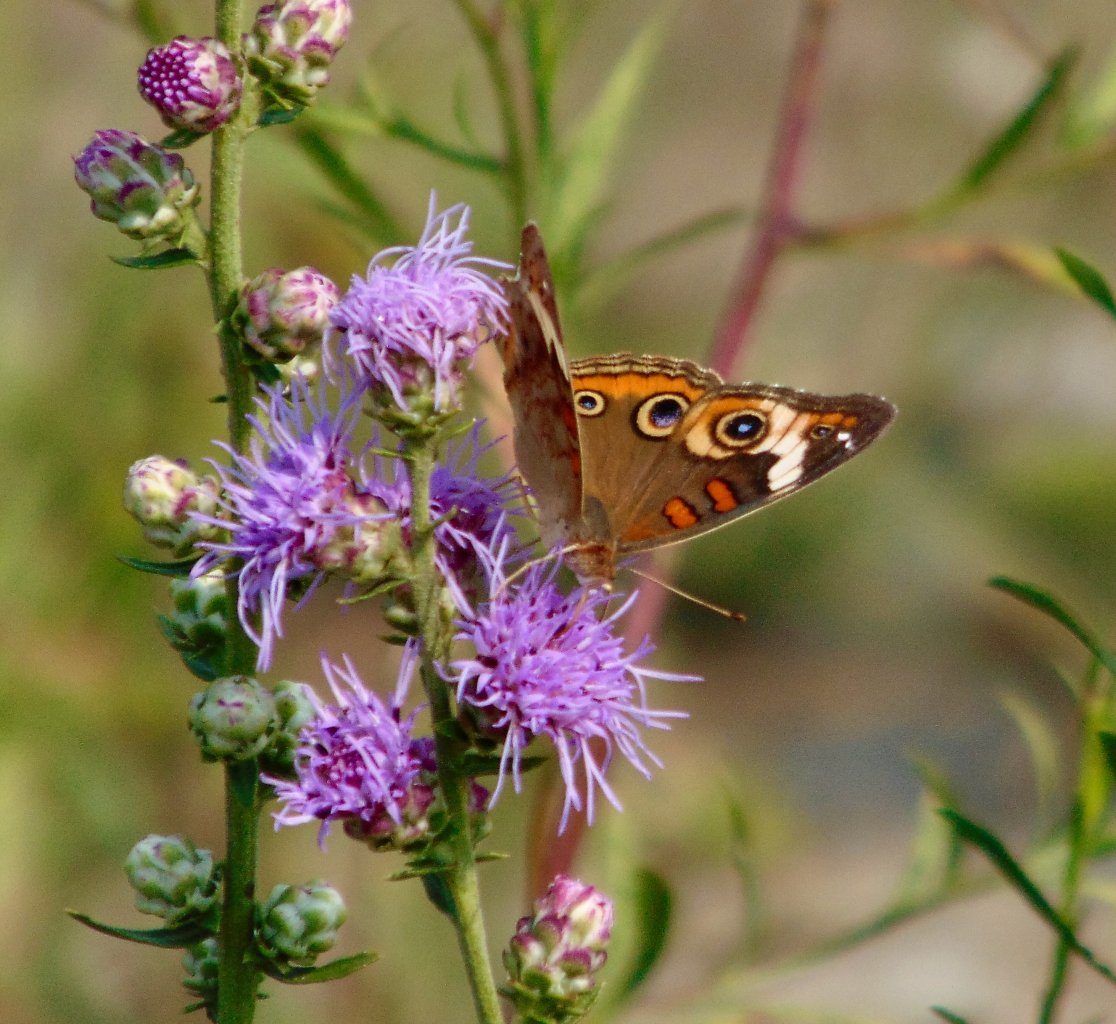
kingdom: Animalia
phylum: Arthropoda
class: Insecta
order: Lepidoptera
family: Nymphalidae
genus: Junonia
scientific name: Junonia coenia
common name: Common Buckeye
